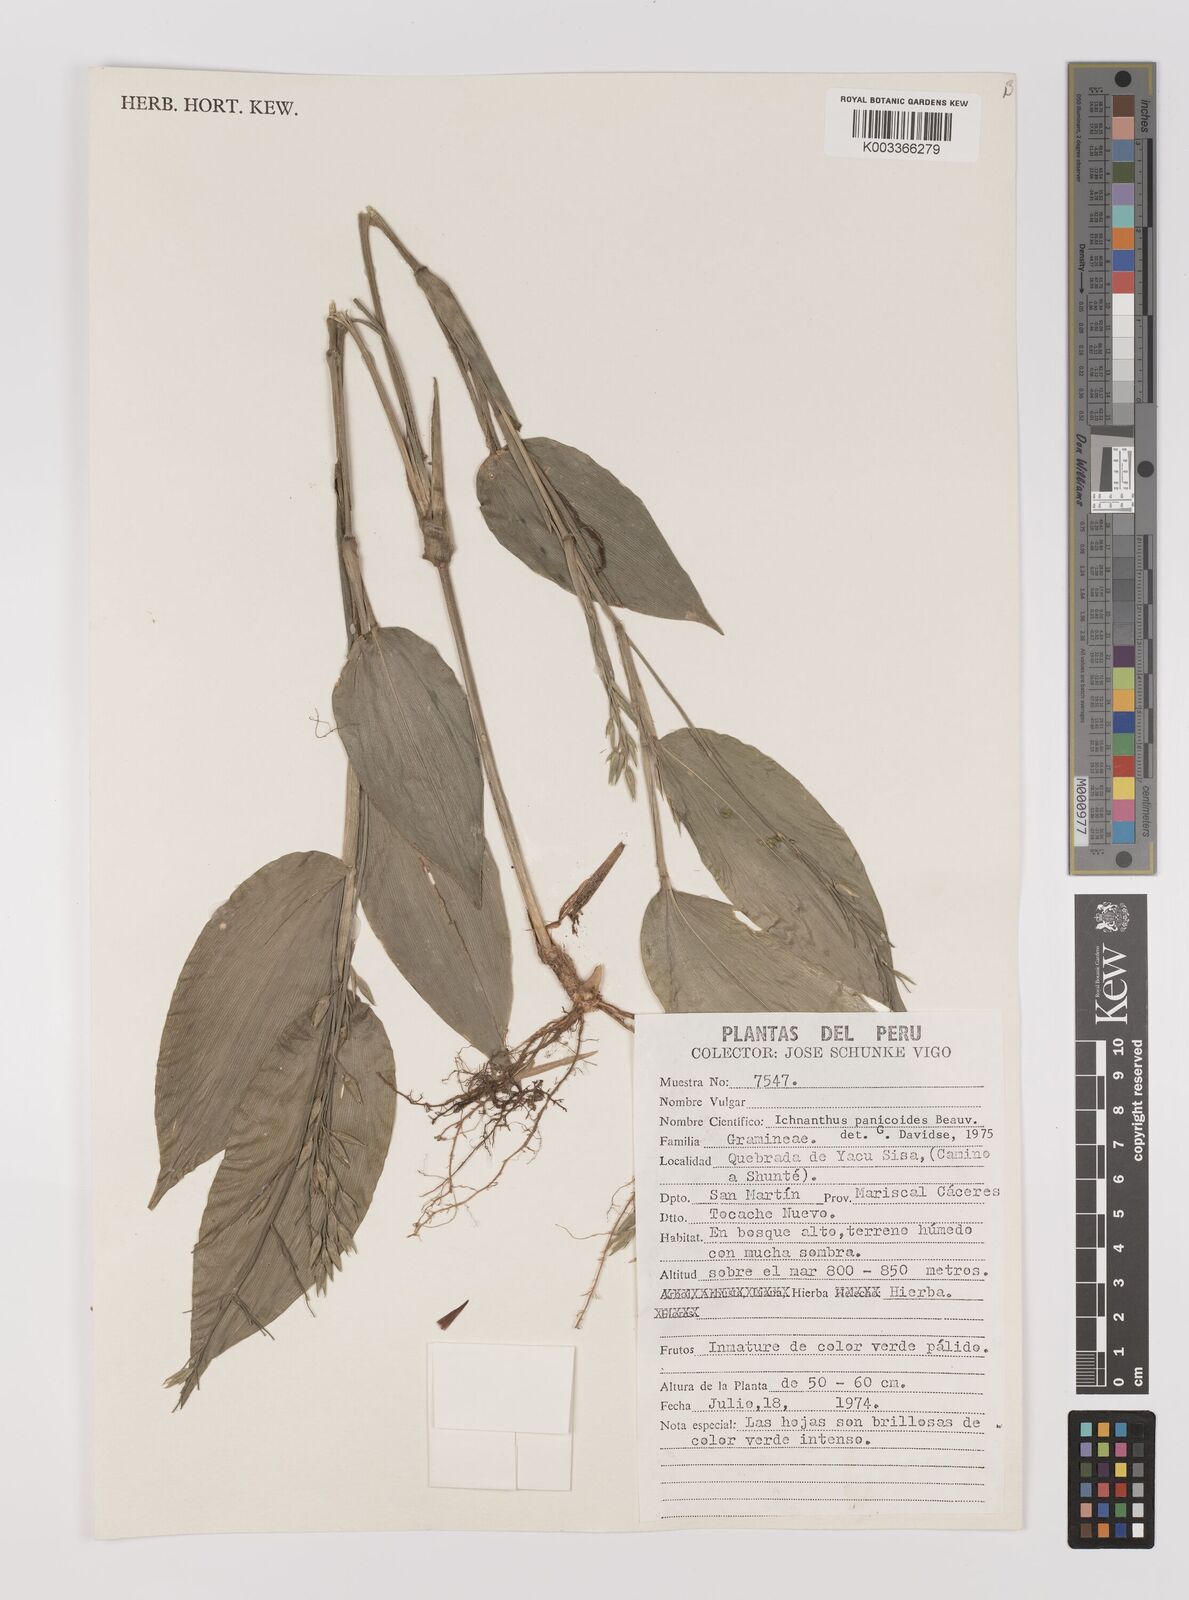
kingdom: Plantae
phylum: Tracheophyta
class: Liliopsida
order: Poales
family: Poaceae
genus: Ichnanthus
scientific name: Ichnanthus panicoides
